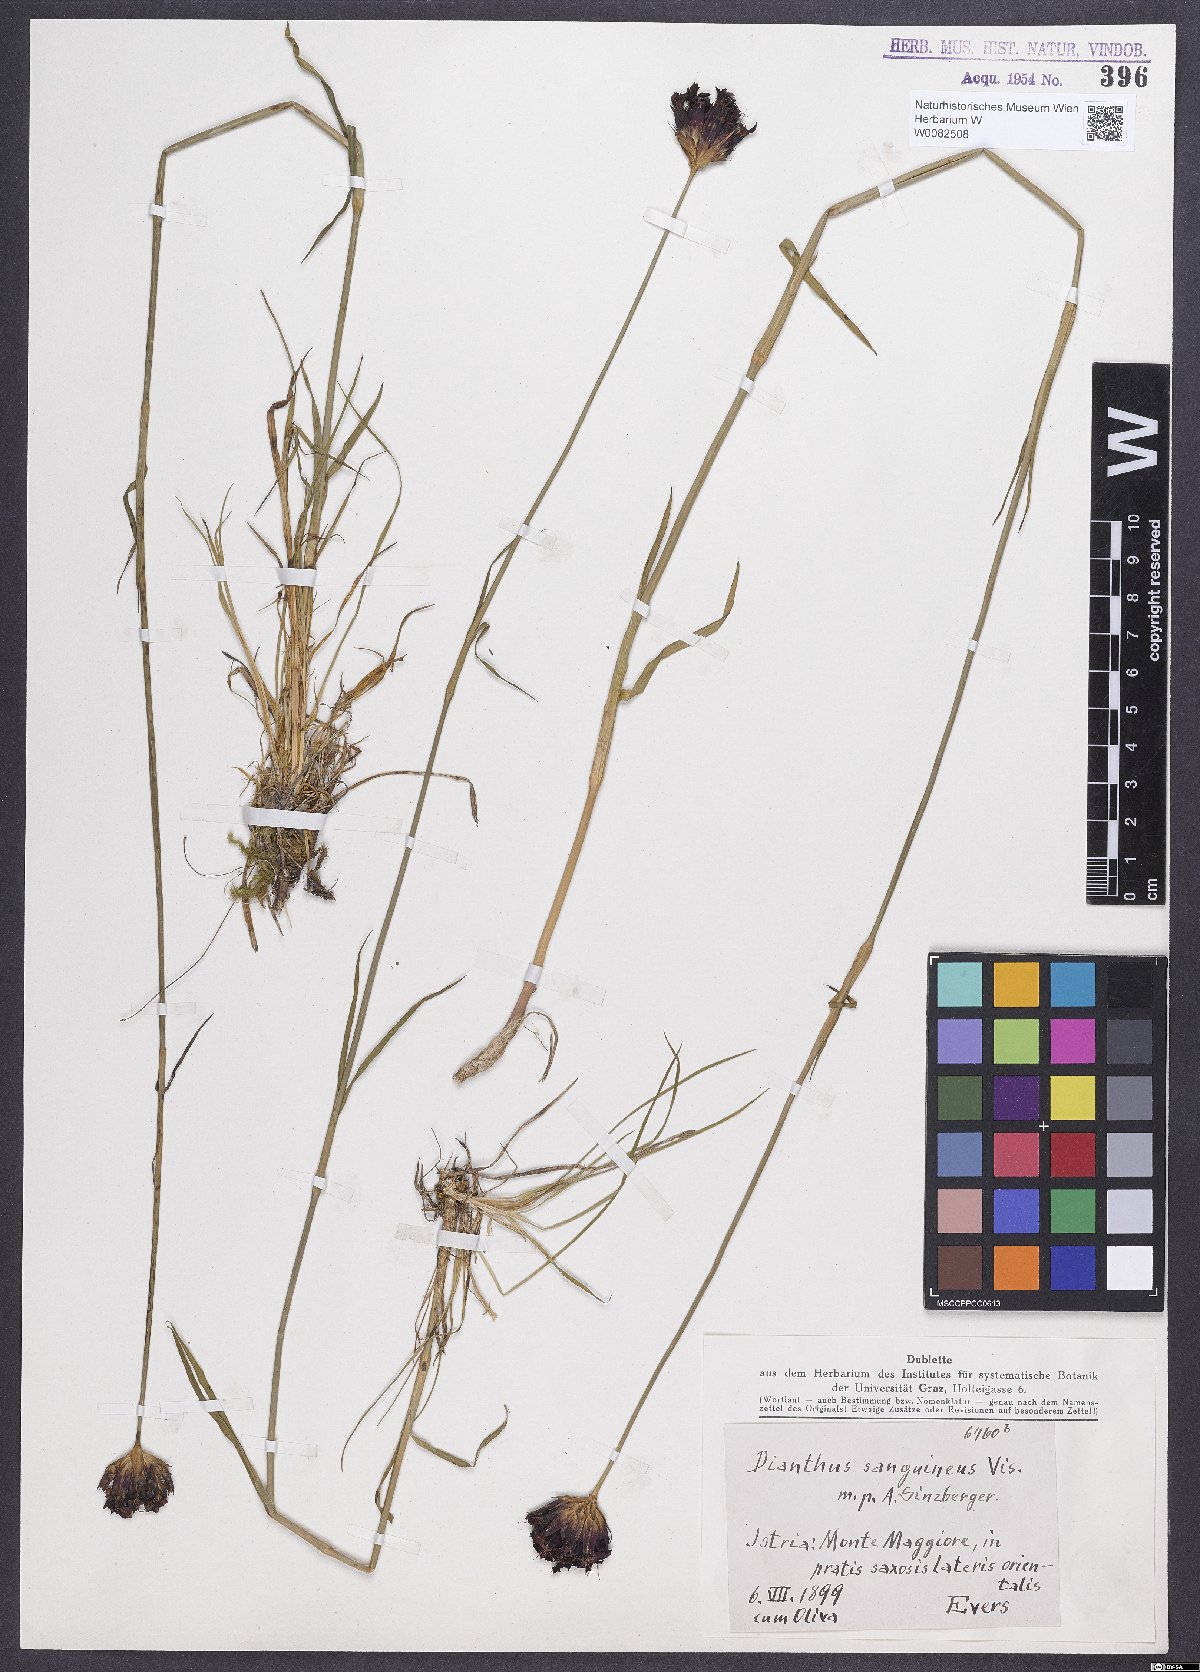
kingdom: Plantae
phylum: Tracheophyta
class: Magnoliopsida
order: Caryophyllales
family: Caryophyllaceae
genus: Dianthus
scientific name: Dianthus carthusianorum
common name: Carthusian pink
